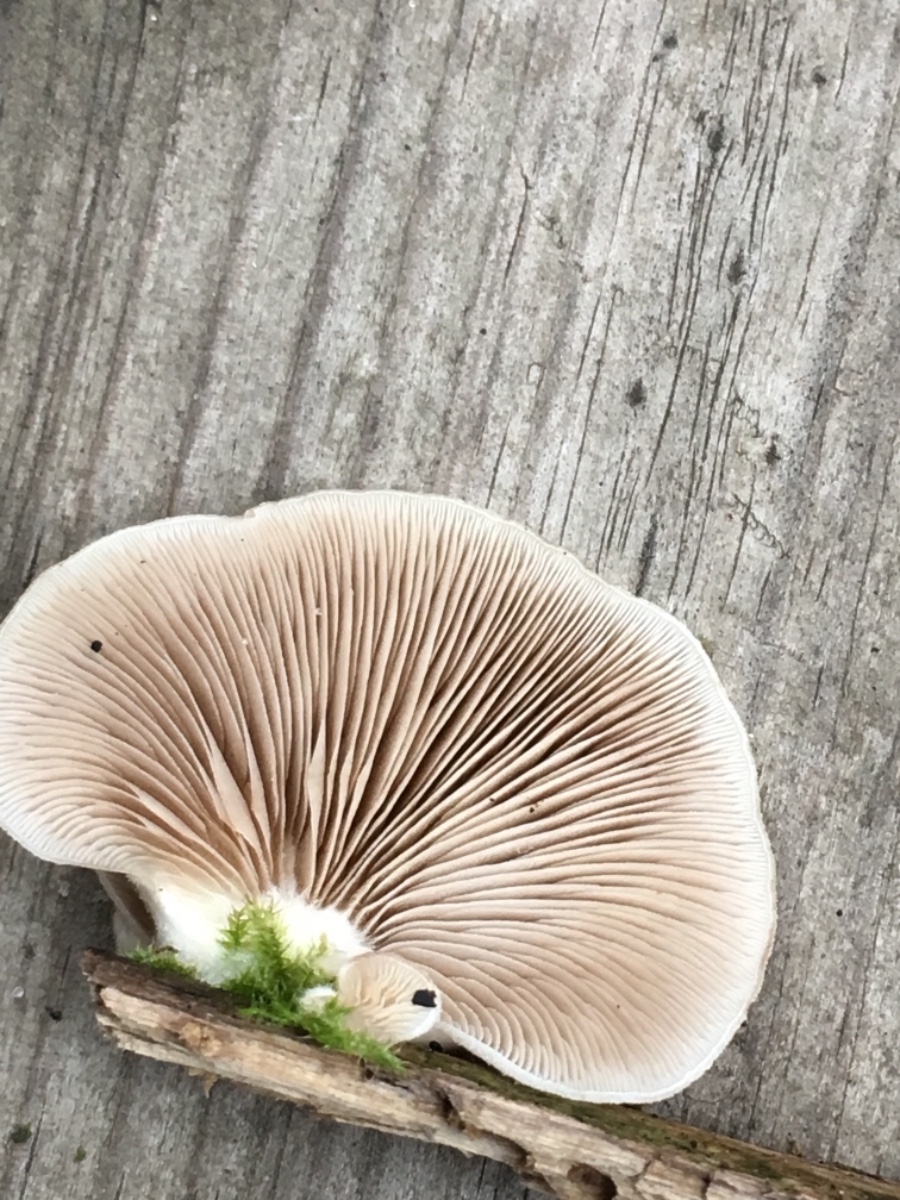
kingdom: Fungi
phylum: Basidiomycota
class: Agaricomycetes
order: Agaricales
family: Crepidotaceae
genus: Crepidotus
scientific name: Crepidotus mollis
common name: blød muslingesvamp
